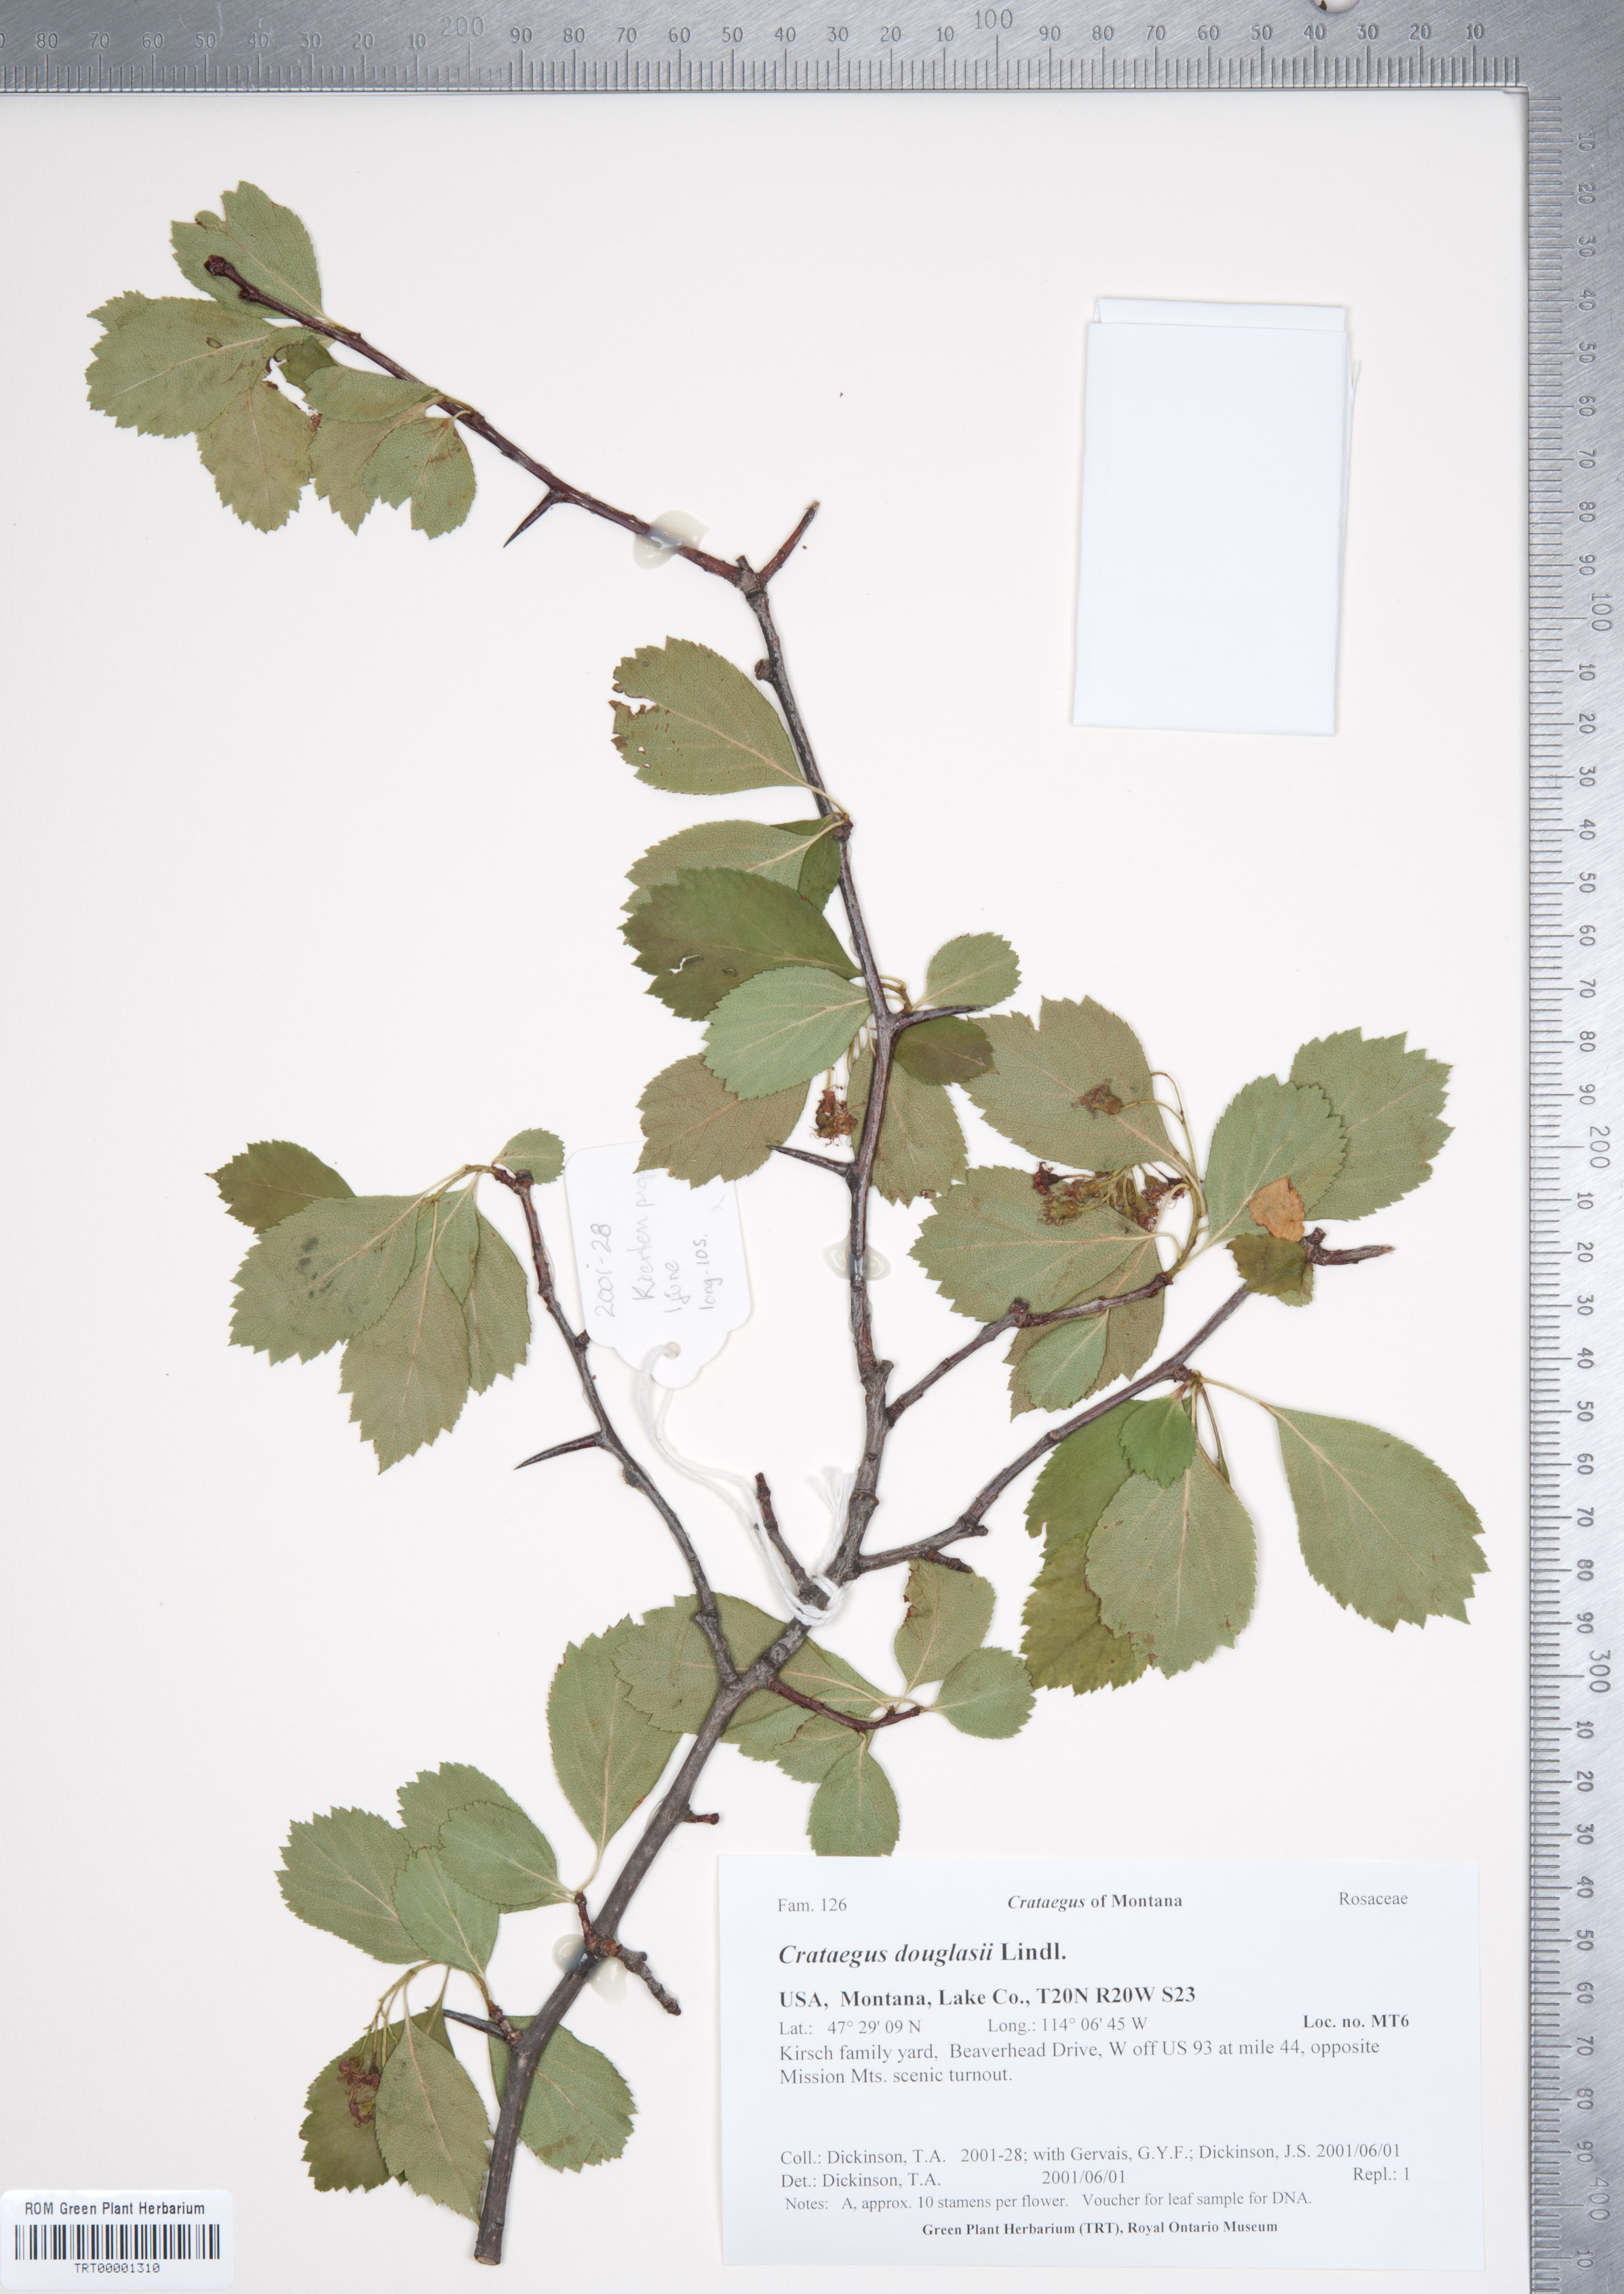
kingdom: Plantae
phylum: Tracheophyta
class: Magnoliopsida
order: Rosales
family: Rosaceae
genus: Crataegus
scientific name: Crataegus douglasii
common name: Black hawthorn
